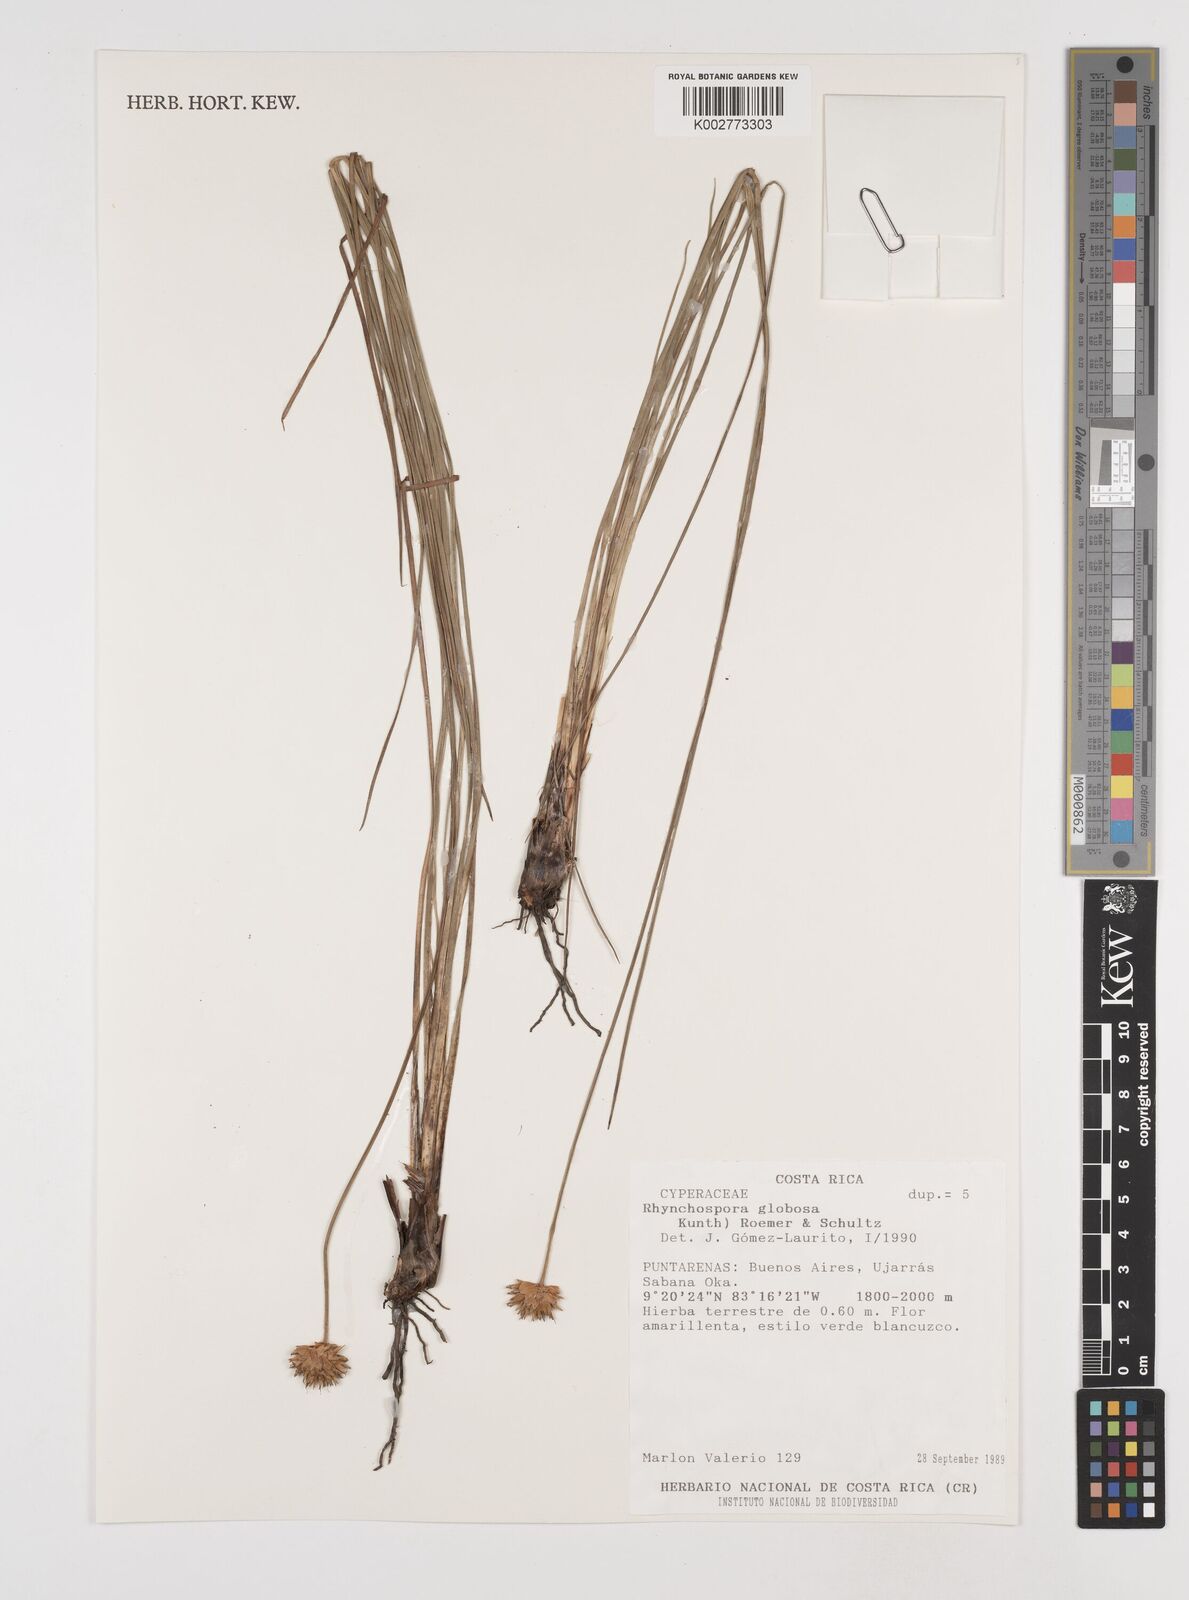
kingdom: Plantae
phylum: Tracheophyta
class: Liliopsida
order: Poales
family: Cyperaceae
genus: Rhynchospora
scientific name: Rhynchospora globosa
